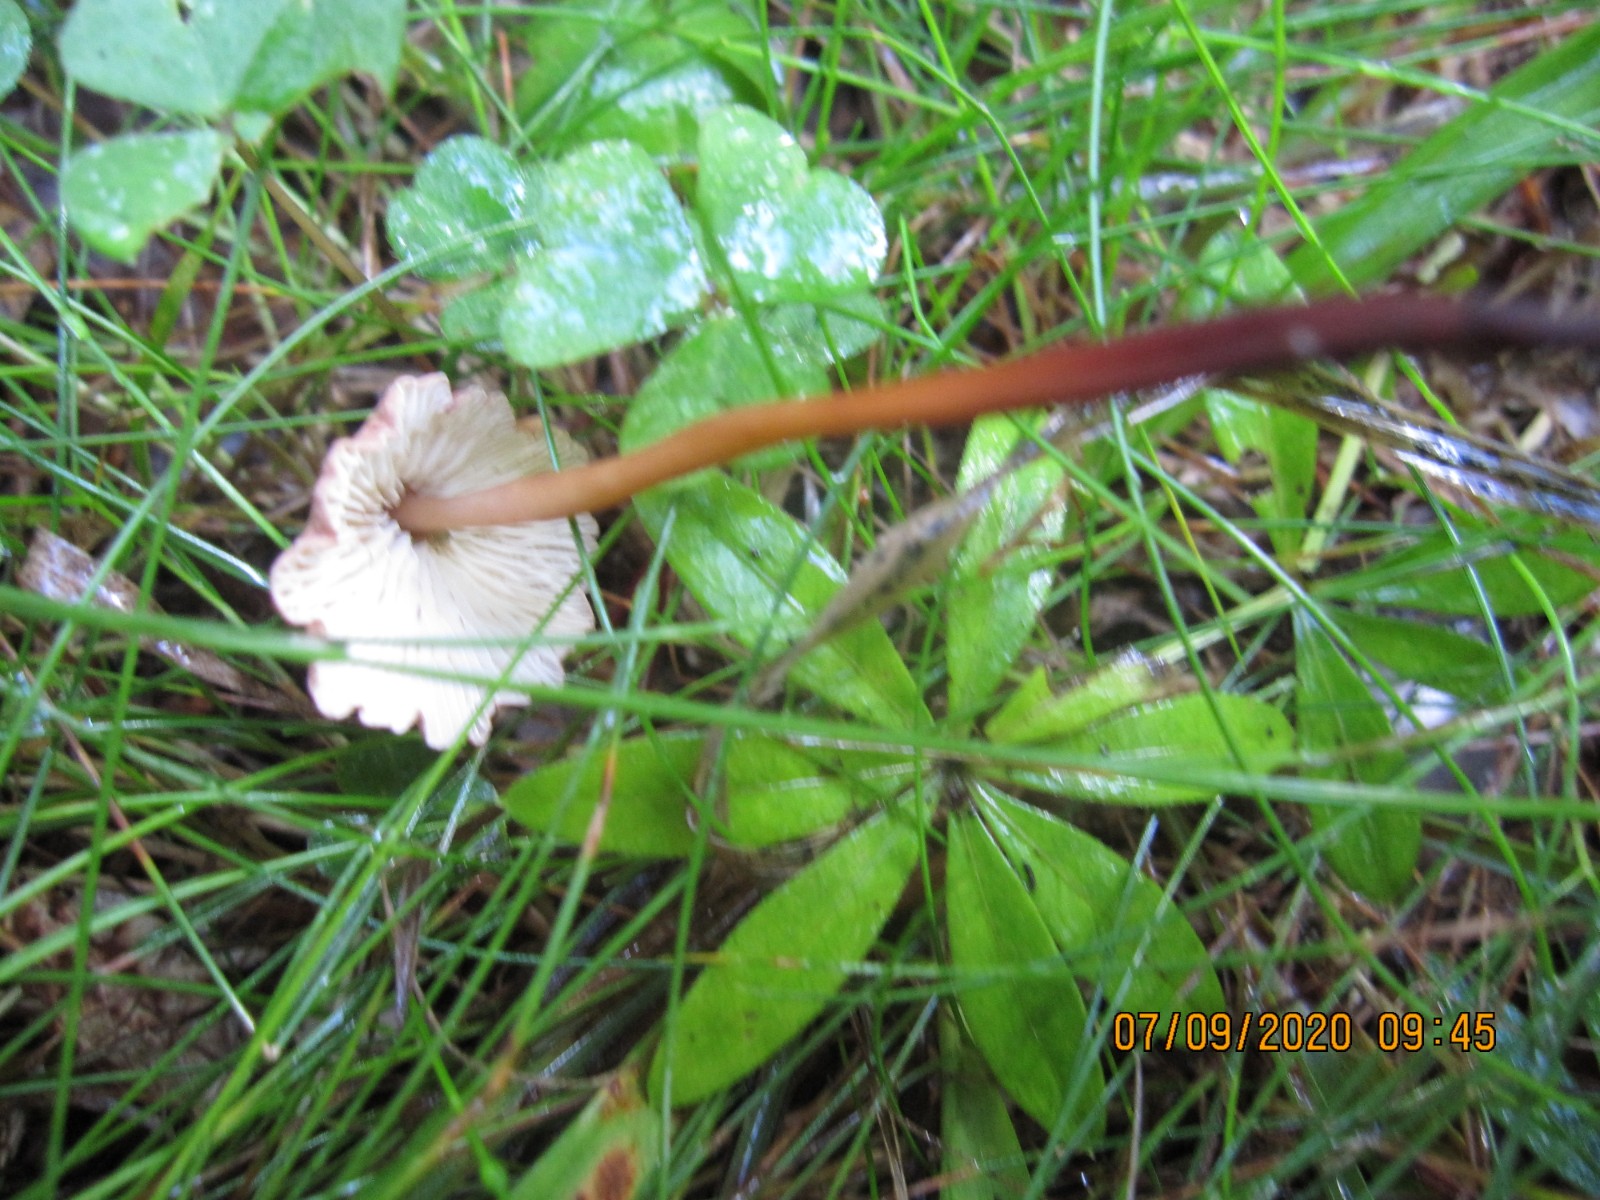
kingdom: Fungi
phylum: Basidiomycota
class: Agaricomycetes
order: Agaricales
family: Omphalotaceae
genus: Mycetinis
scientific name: Mycetinis scorodonius
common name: lille løghat
